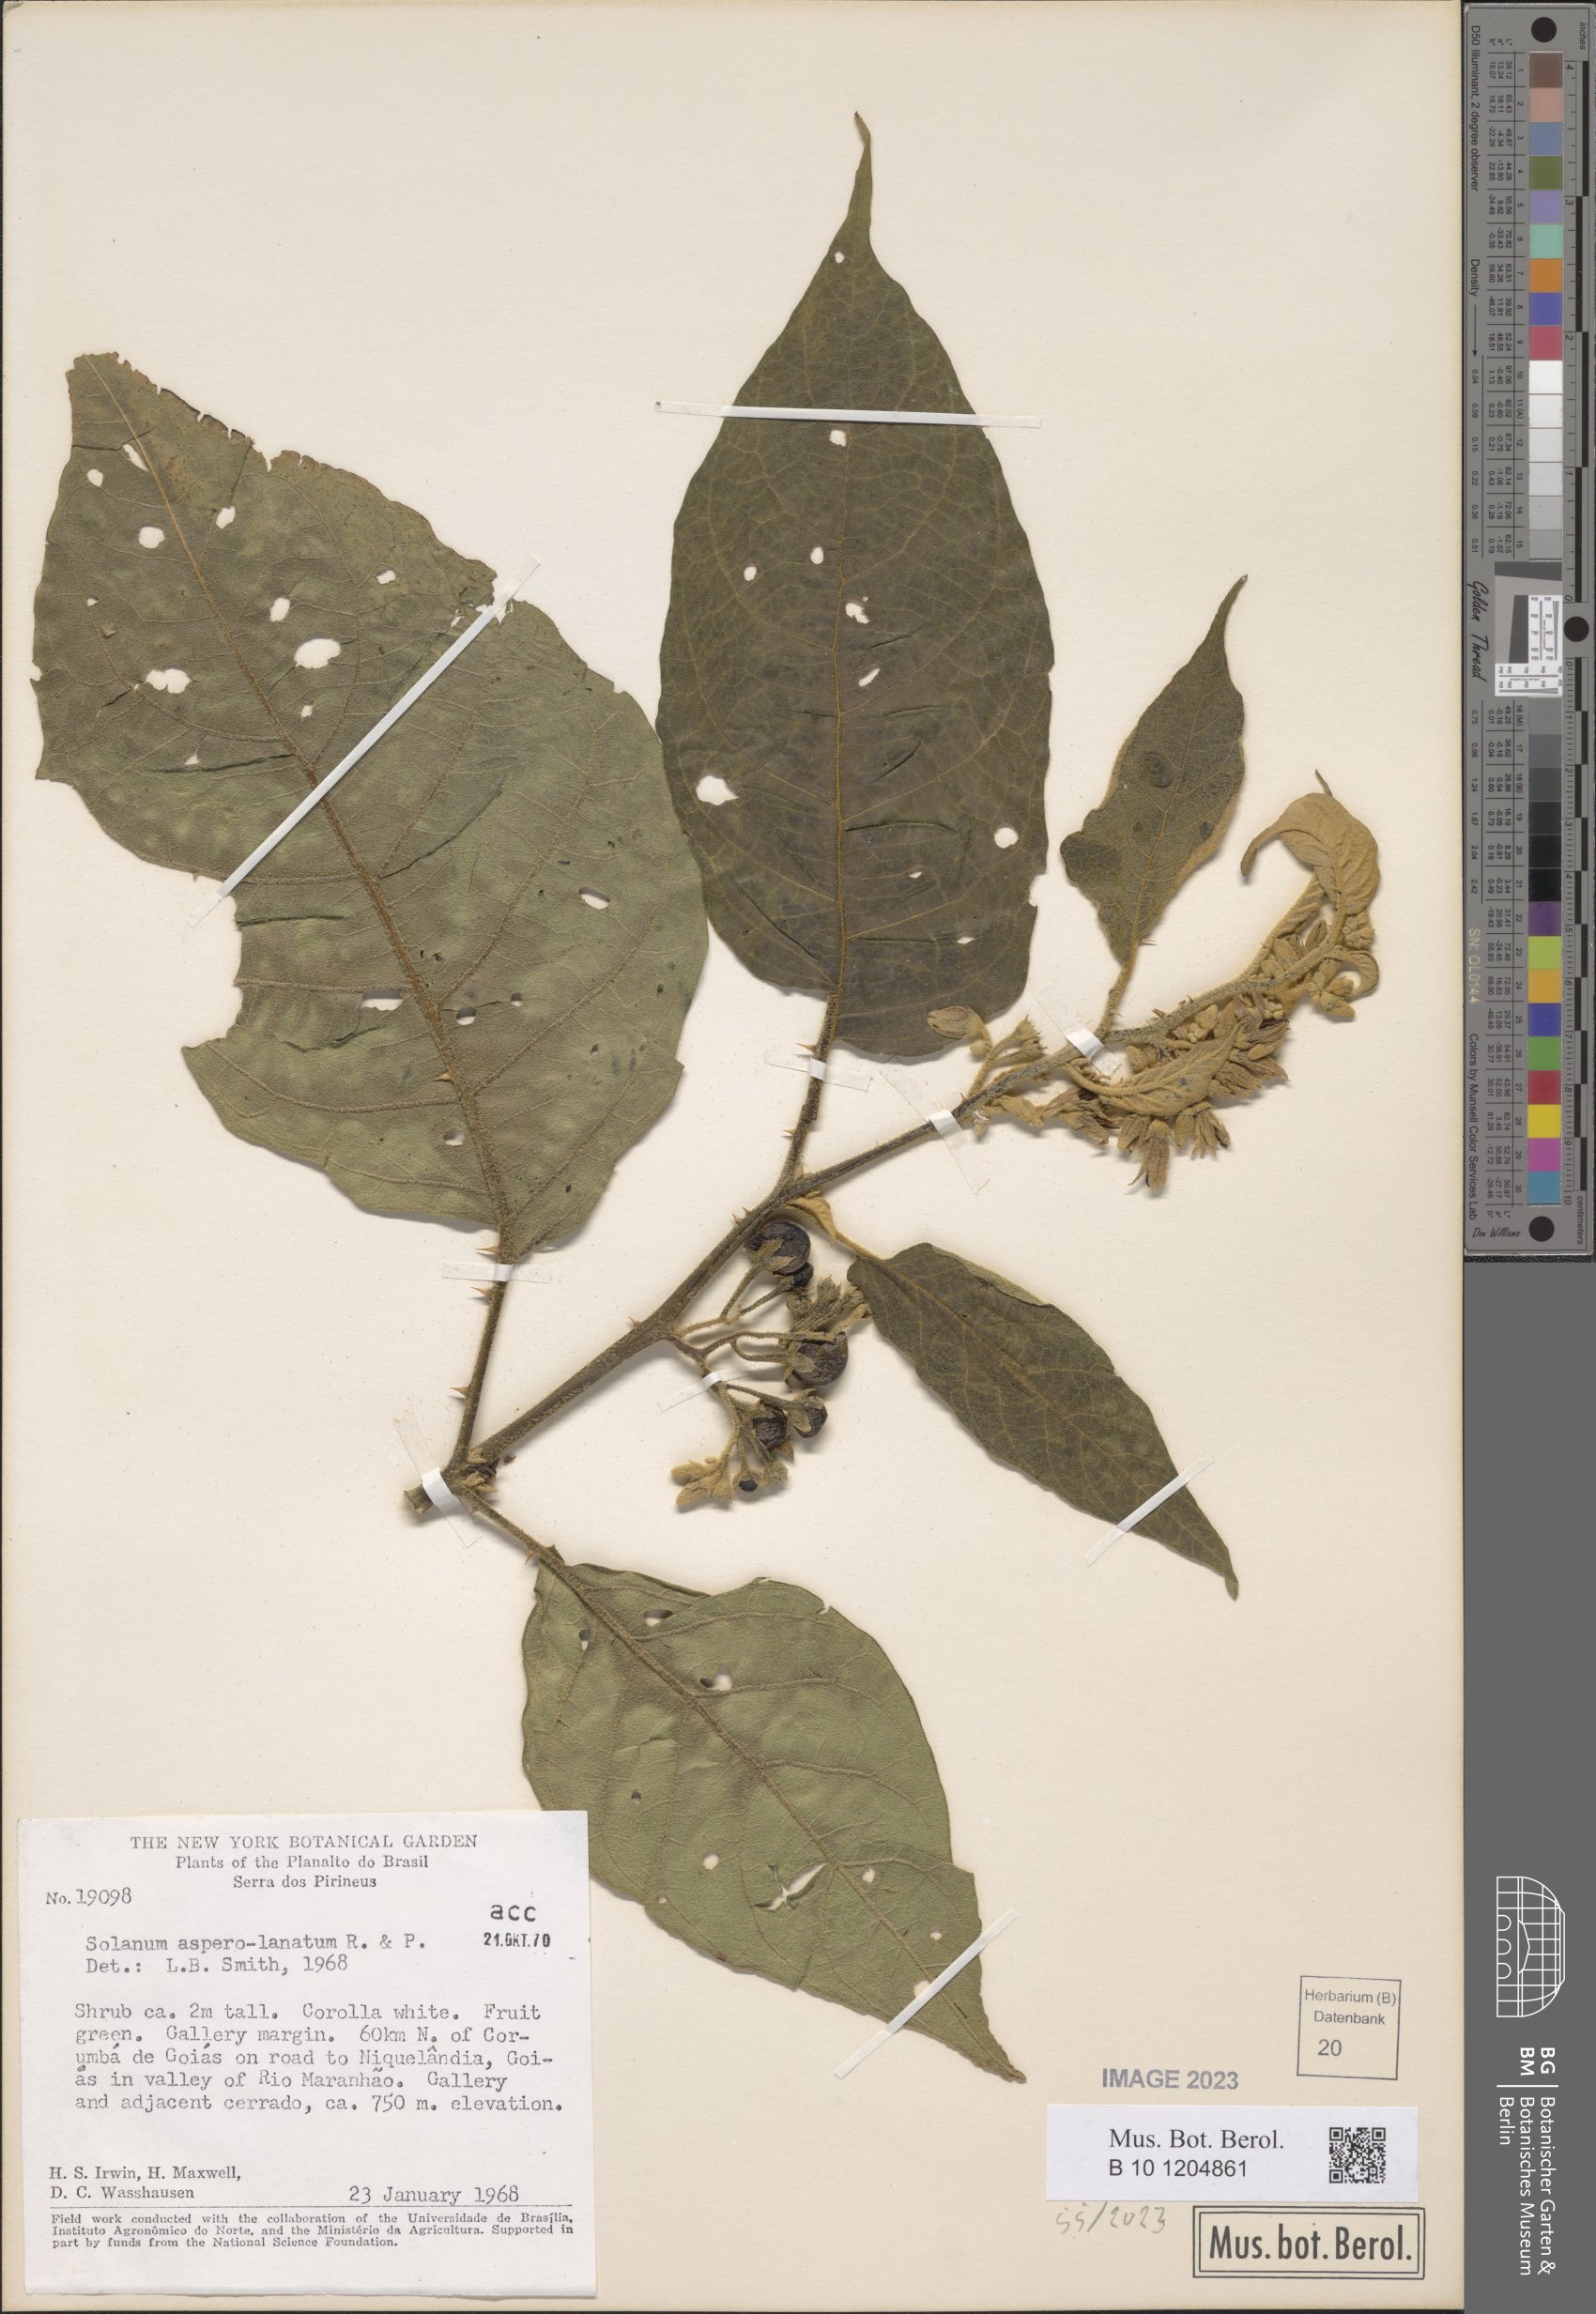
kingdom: Plantae
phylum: Tracheophyta
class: Magnoliopsida
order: Solanales
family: Solanaceae
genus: Solanum
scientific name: Solanum asperolanatum
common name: Devil's-fig
